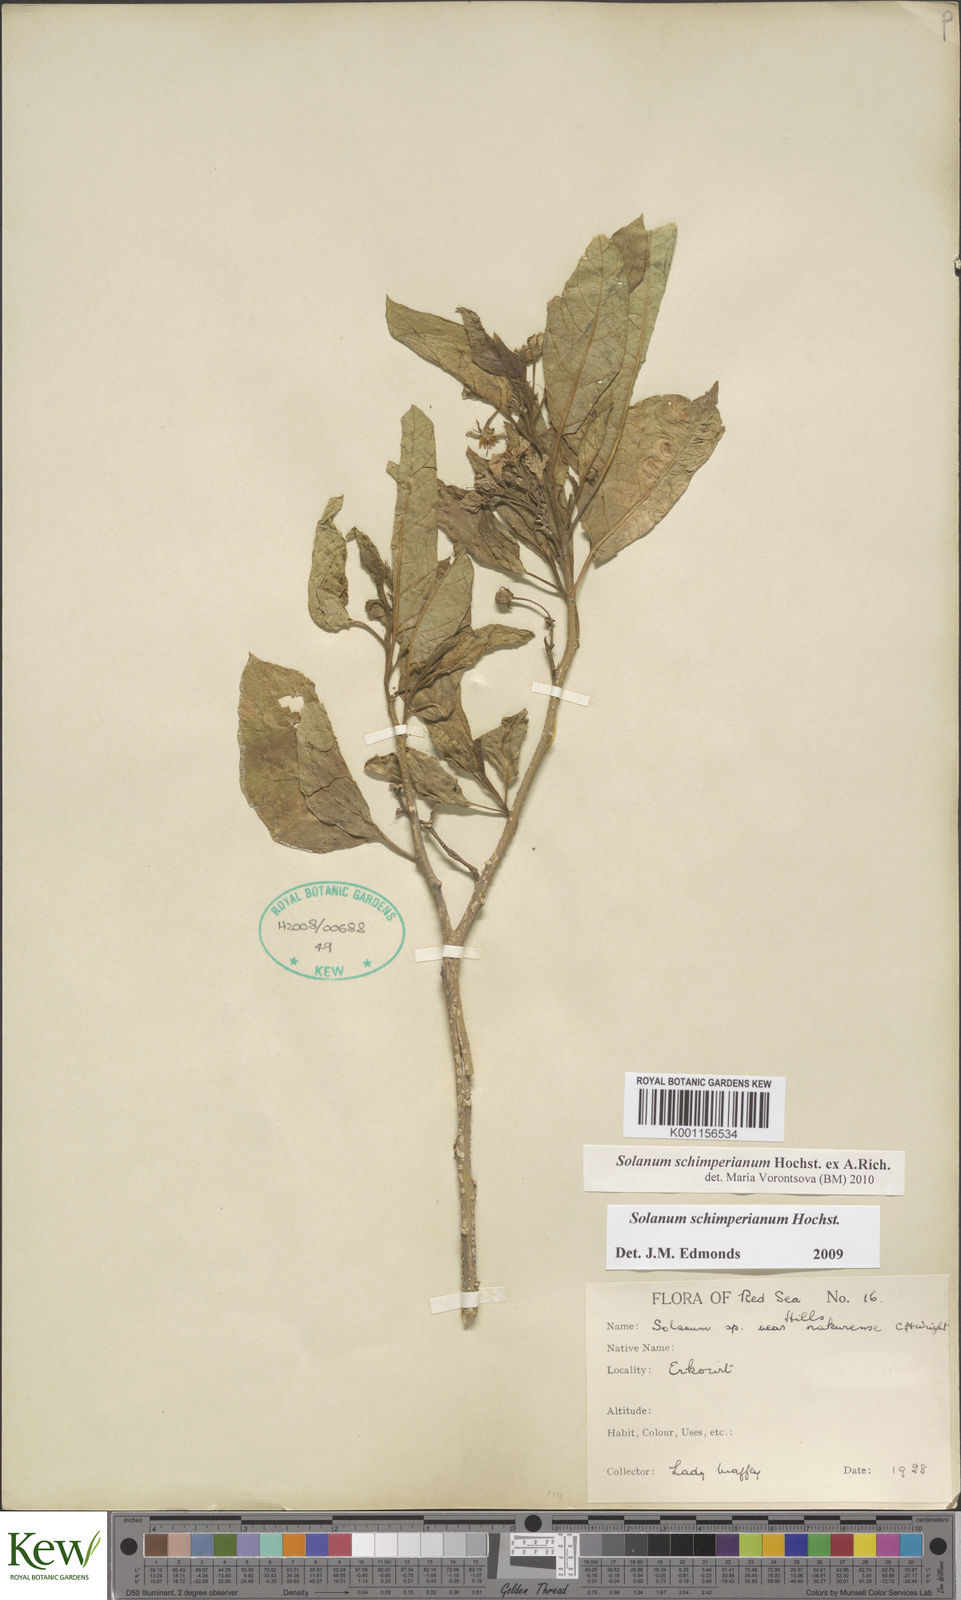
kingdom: Plantae
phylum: Tracheophyta
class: Magnoliopsida
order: Solanales
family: Solanaceae
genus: Solanum
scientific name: Solanum
